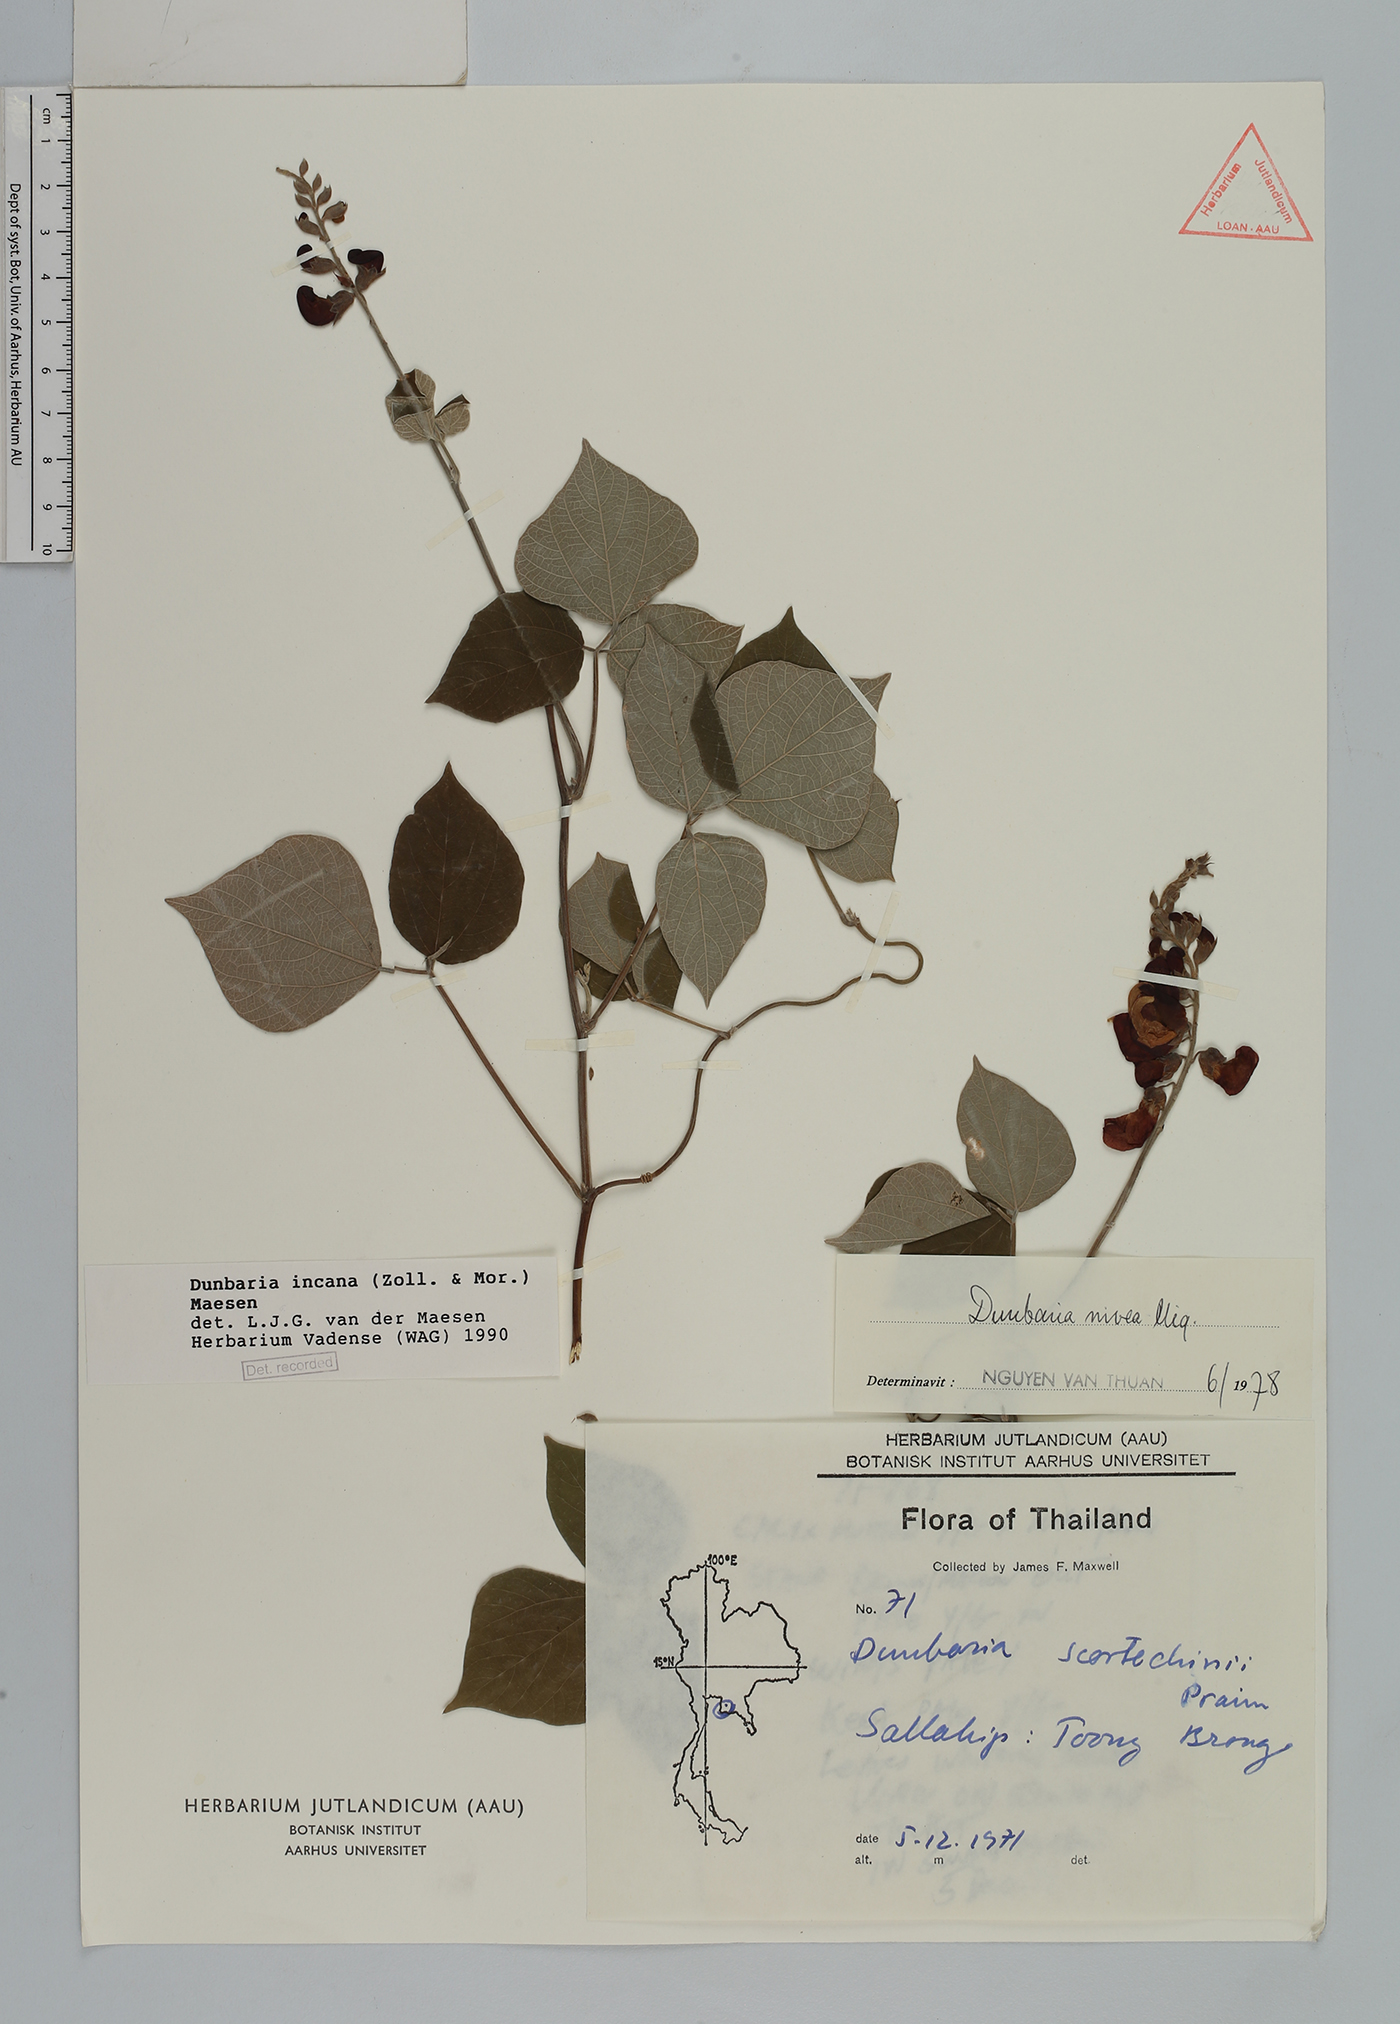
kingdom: Plantae
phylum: Tracheophyta
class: Magnoliopsida
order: Fabales
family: Fabaceae
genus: Dunbaria
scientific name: Dunbaria incana
